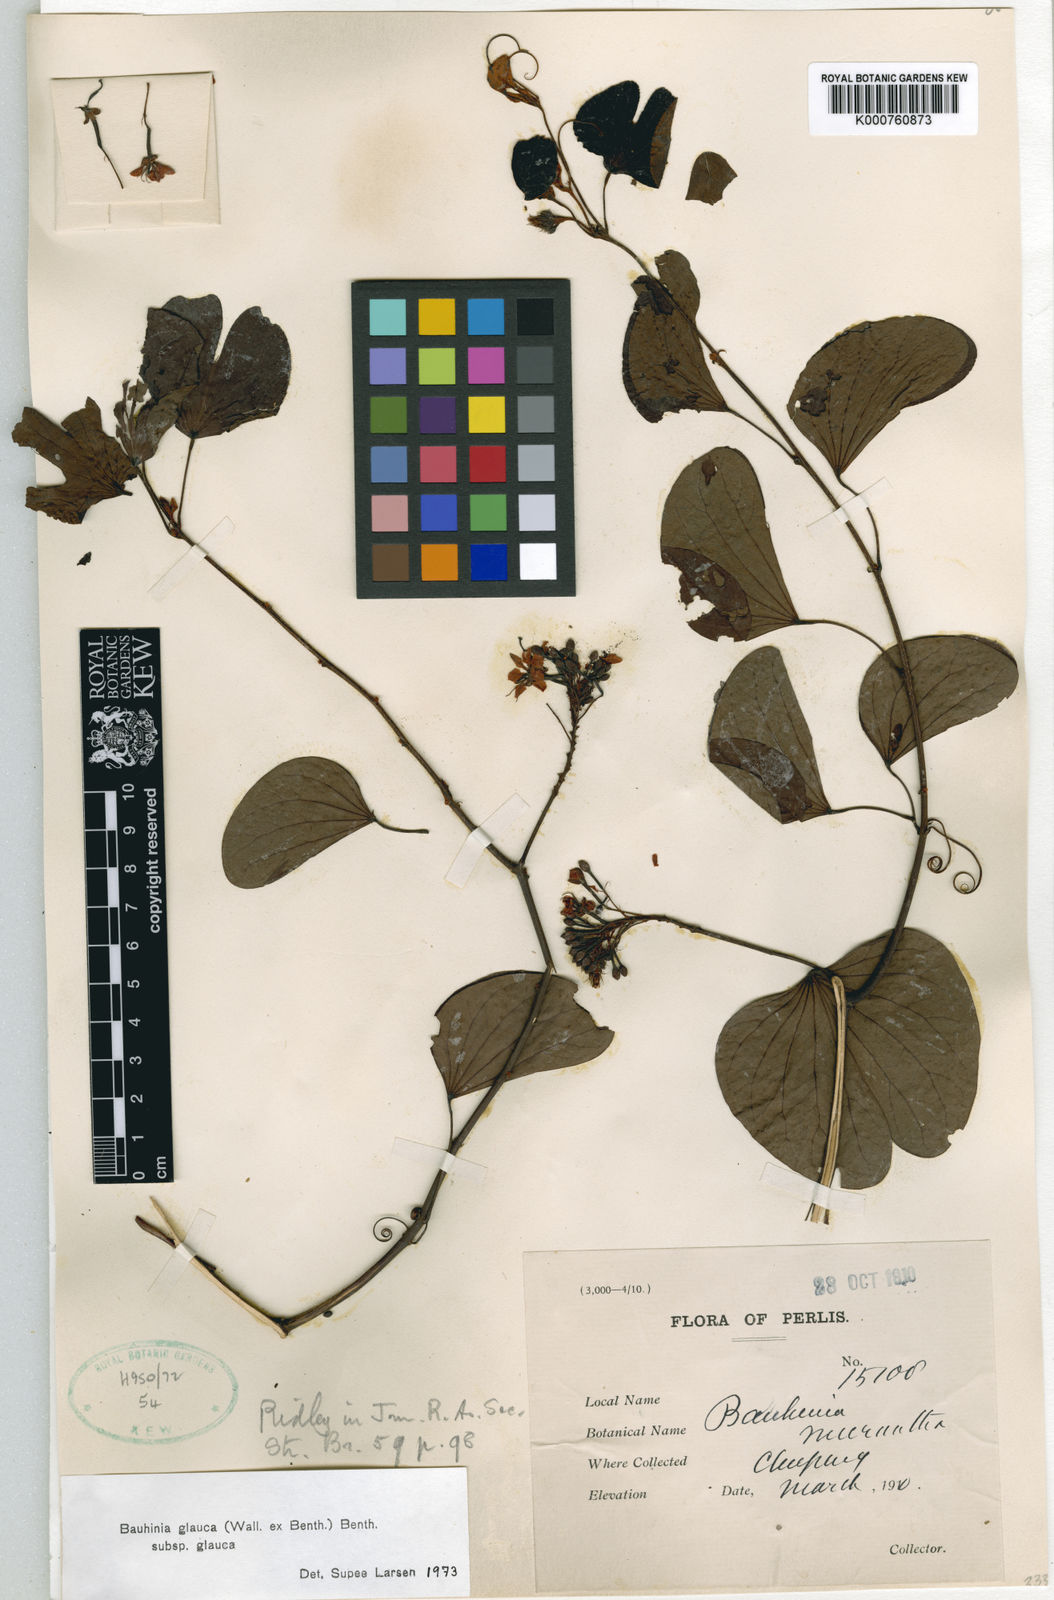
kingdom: Plantae
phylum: Tracheophyta
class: Magnoliopsida
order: Fabales
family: Fabaceae
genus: Cheniella
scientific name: Cheniella glauca
